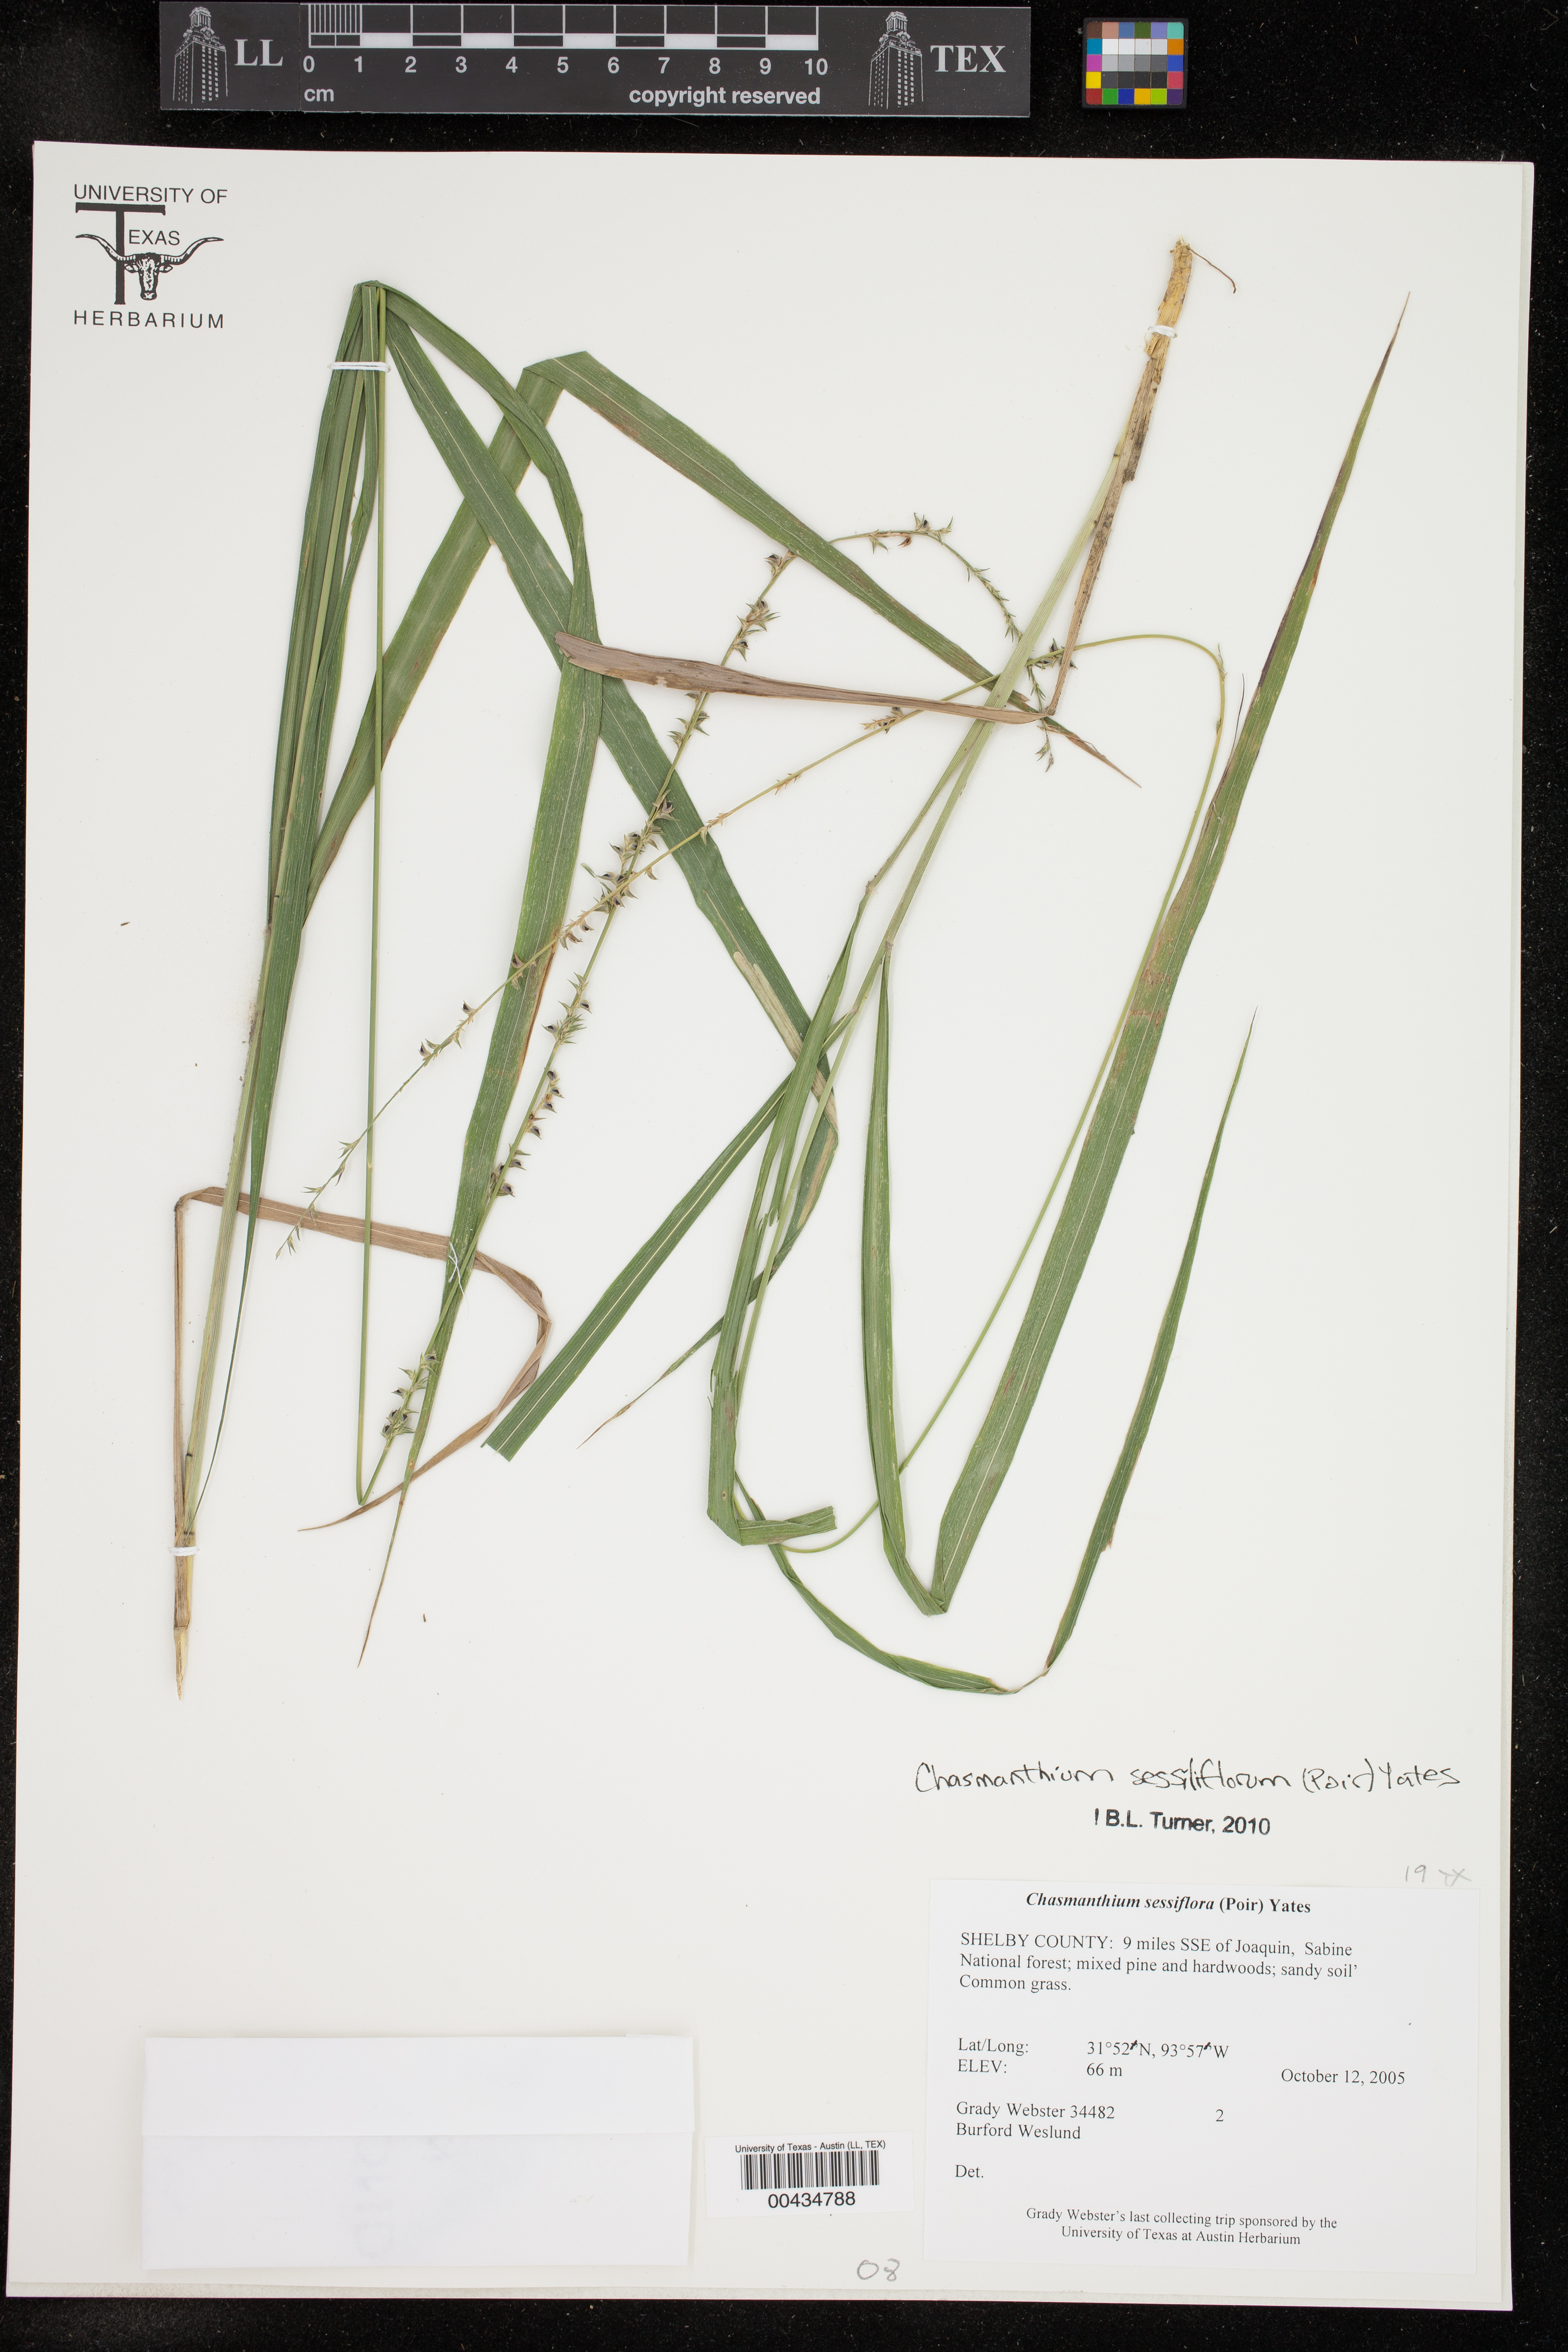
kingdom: Plantae
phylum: Tracheophyta
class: Liliopsida
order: Poales
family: Poaceae
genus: Chasmanthium
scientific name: Chasmanthium laxum
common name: Slender chasmanthium
